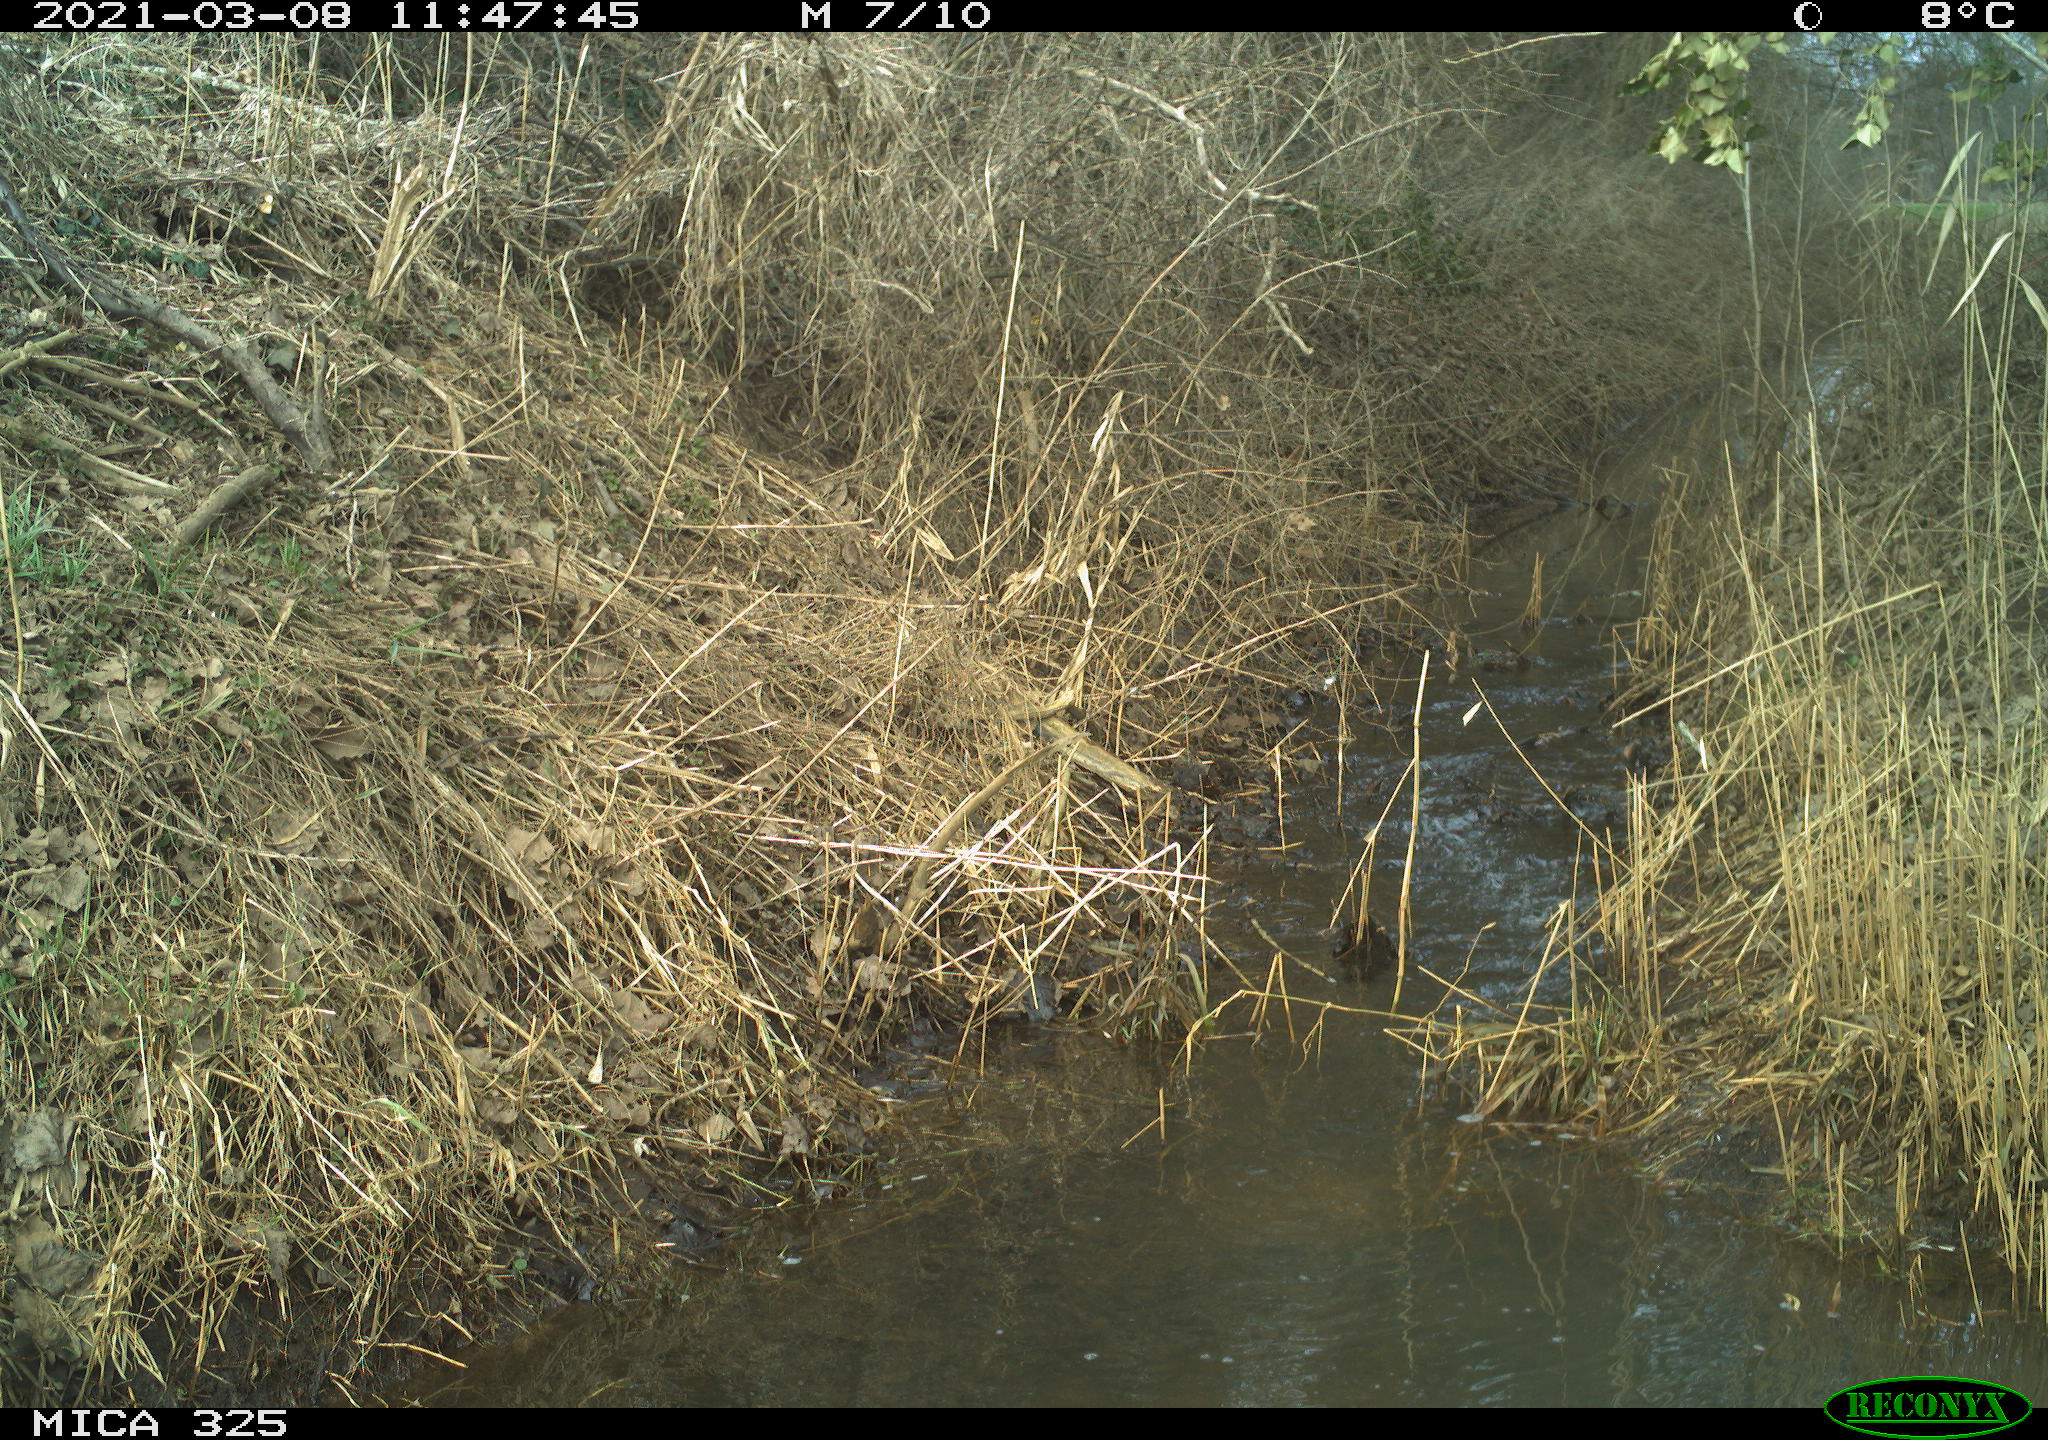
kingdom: Animalia
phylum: Chordata
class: Mammalia
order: Lagomorpha
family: Leporidae
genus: Lepus
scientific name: Lepus europaeus
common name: European hare
